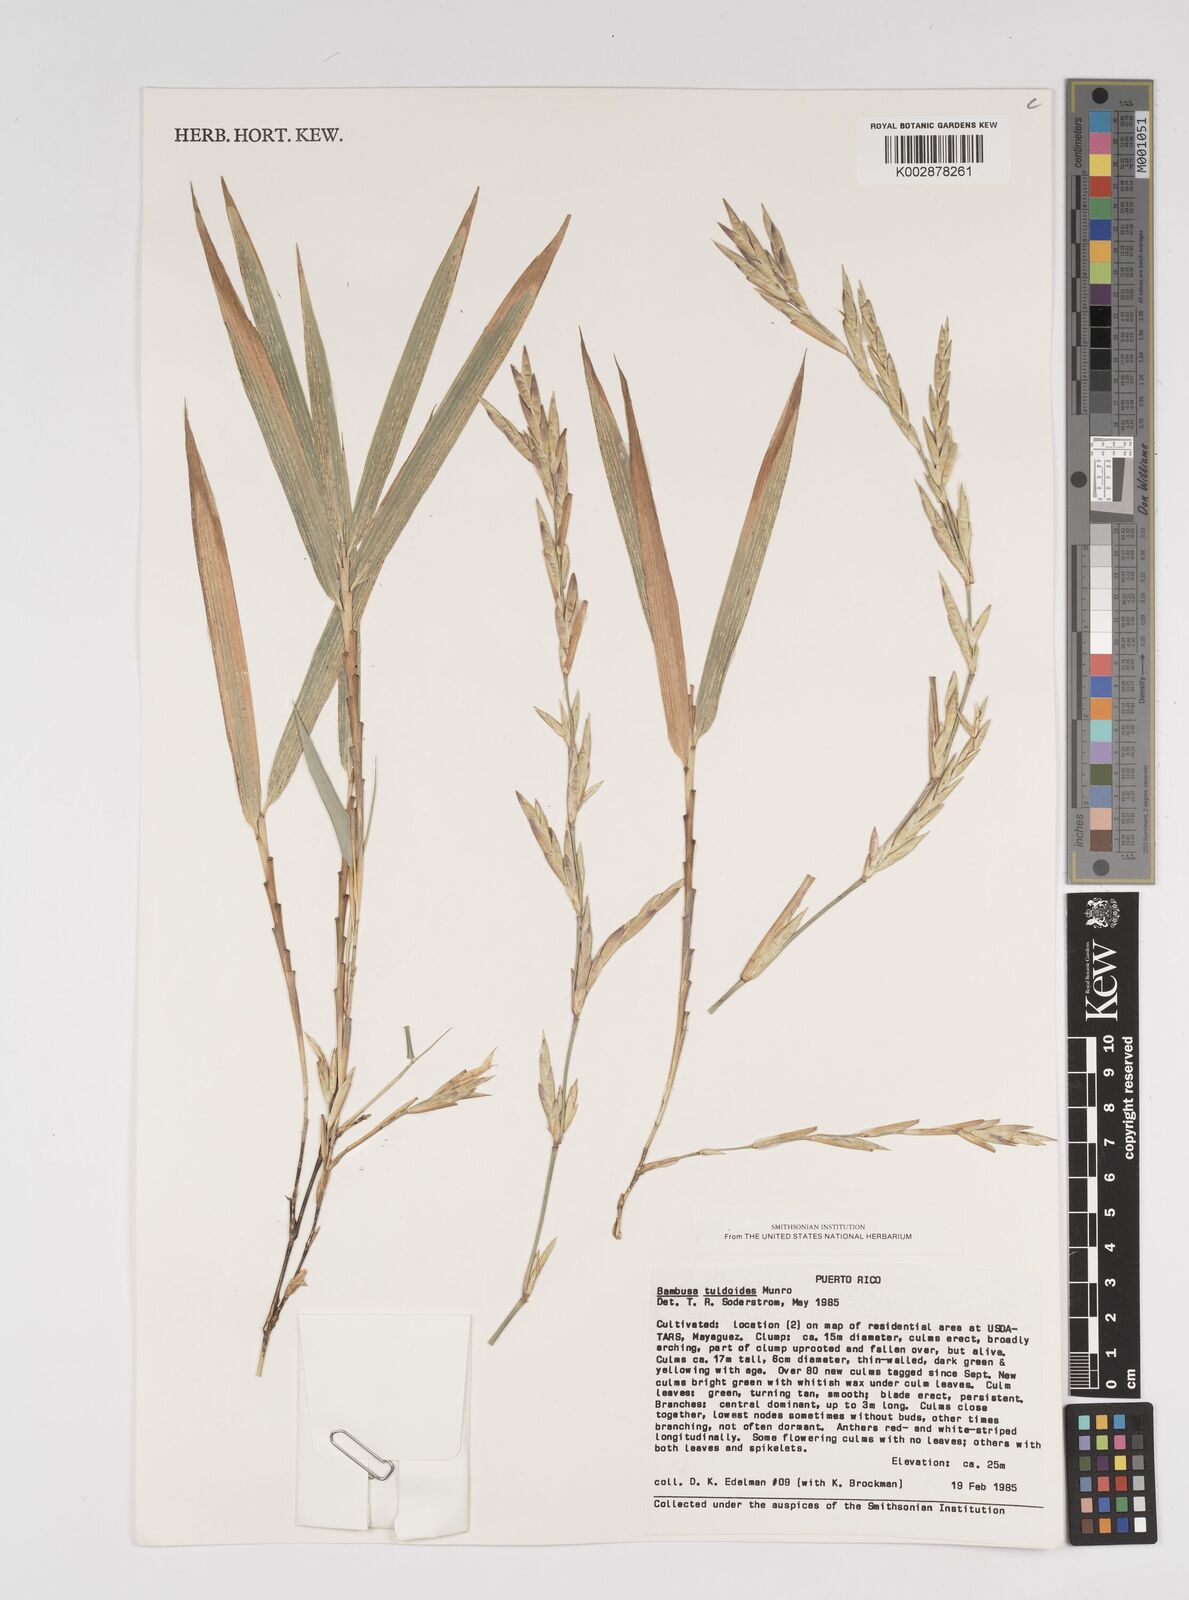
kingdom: Plantae
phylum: Tracheophyta
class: Liliopsida
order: Poales
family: Poaceae
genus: Bambusa
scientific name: Bambusa tuldoides
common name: Verdant bamboo
